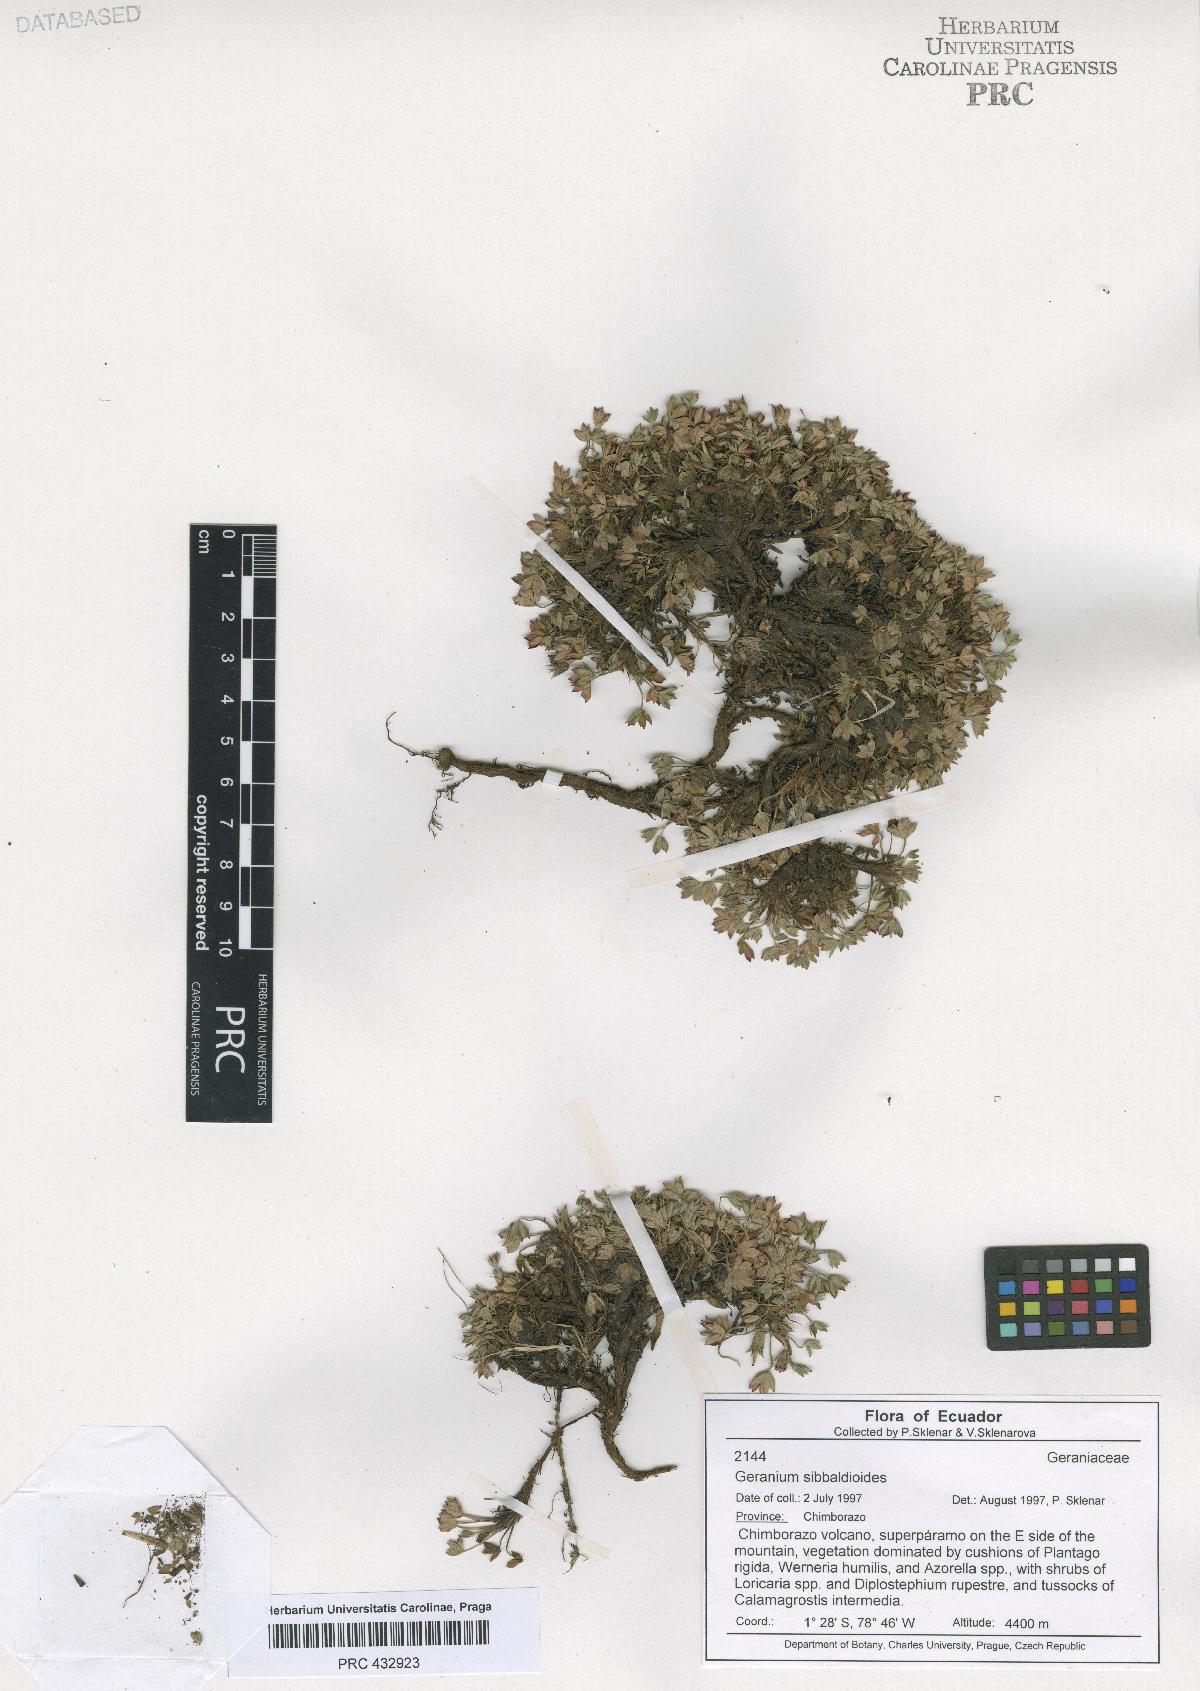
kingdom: Plantae
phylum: Tracheophyta
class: Magnoliopsida
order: Geraniales
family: Geraniaceae
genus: Geranium
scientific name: Geranium sibbaldioides
